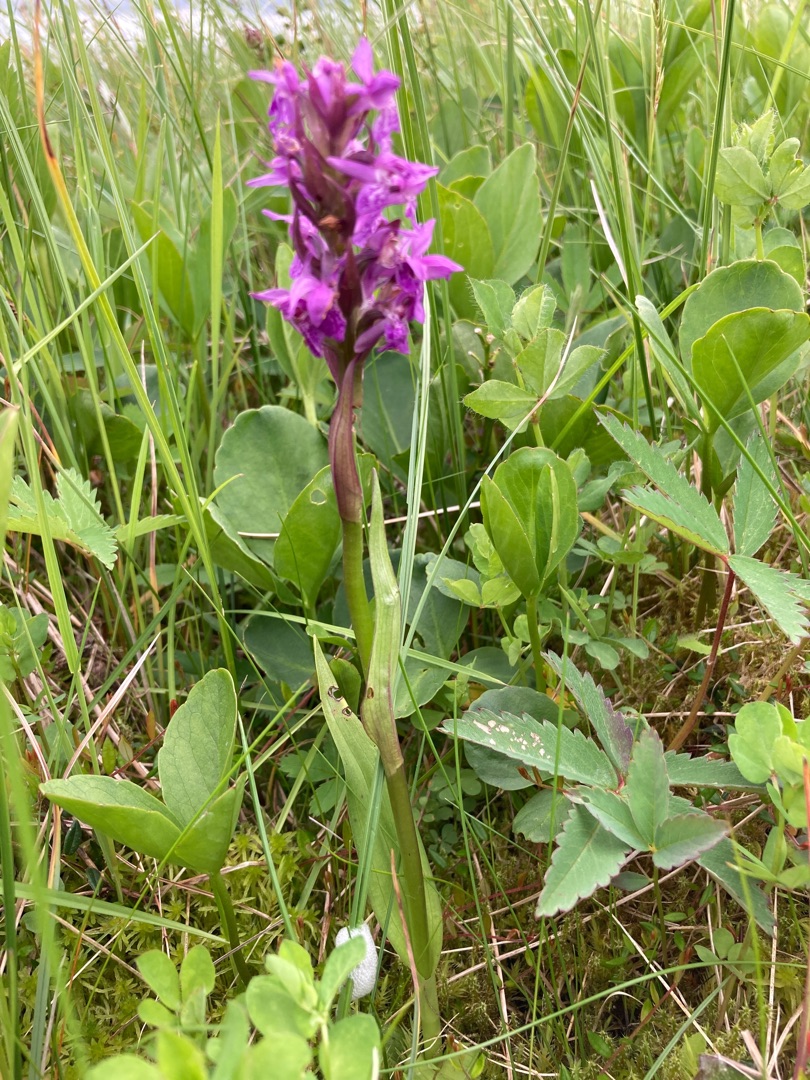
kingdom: Plantae
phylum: Tracheophyta
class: Liliopsida
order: Asparagales
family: Orchidaceae
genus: Dactylorhiza
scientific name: Dactylorhiza majalis
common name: Maj-gøgeurt
